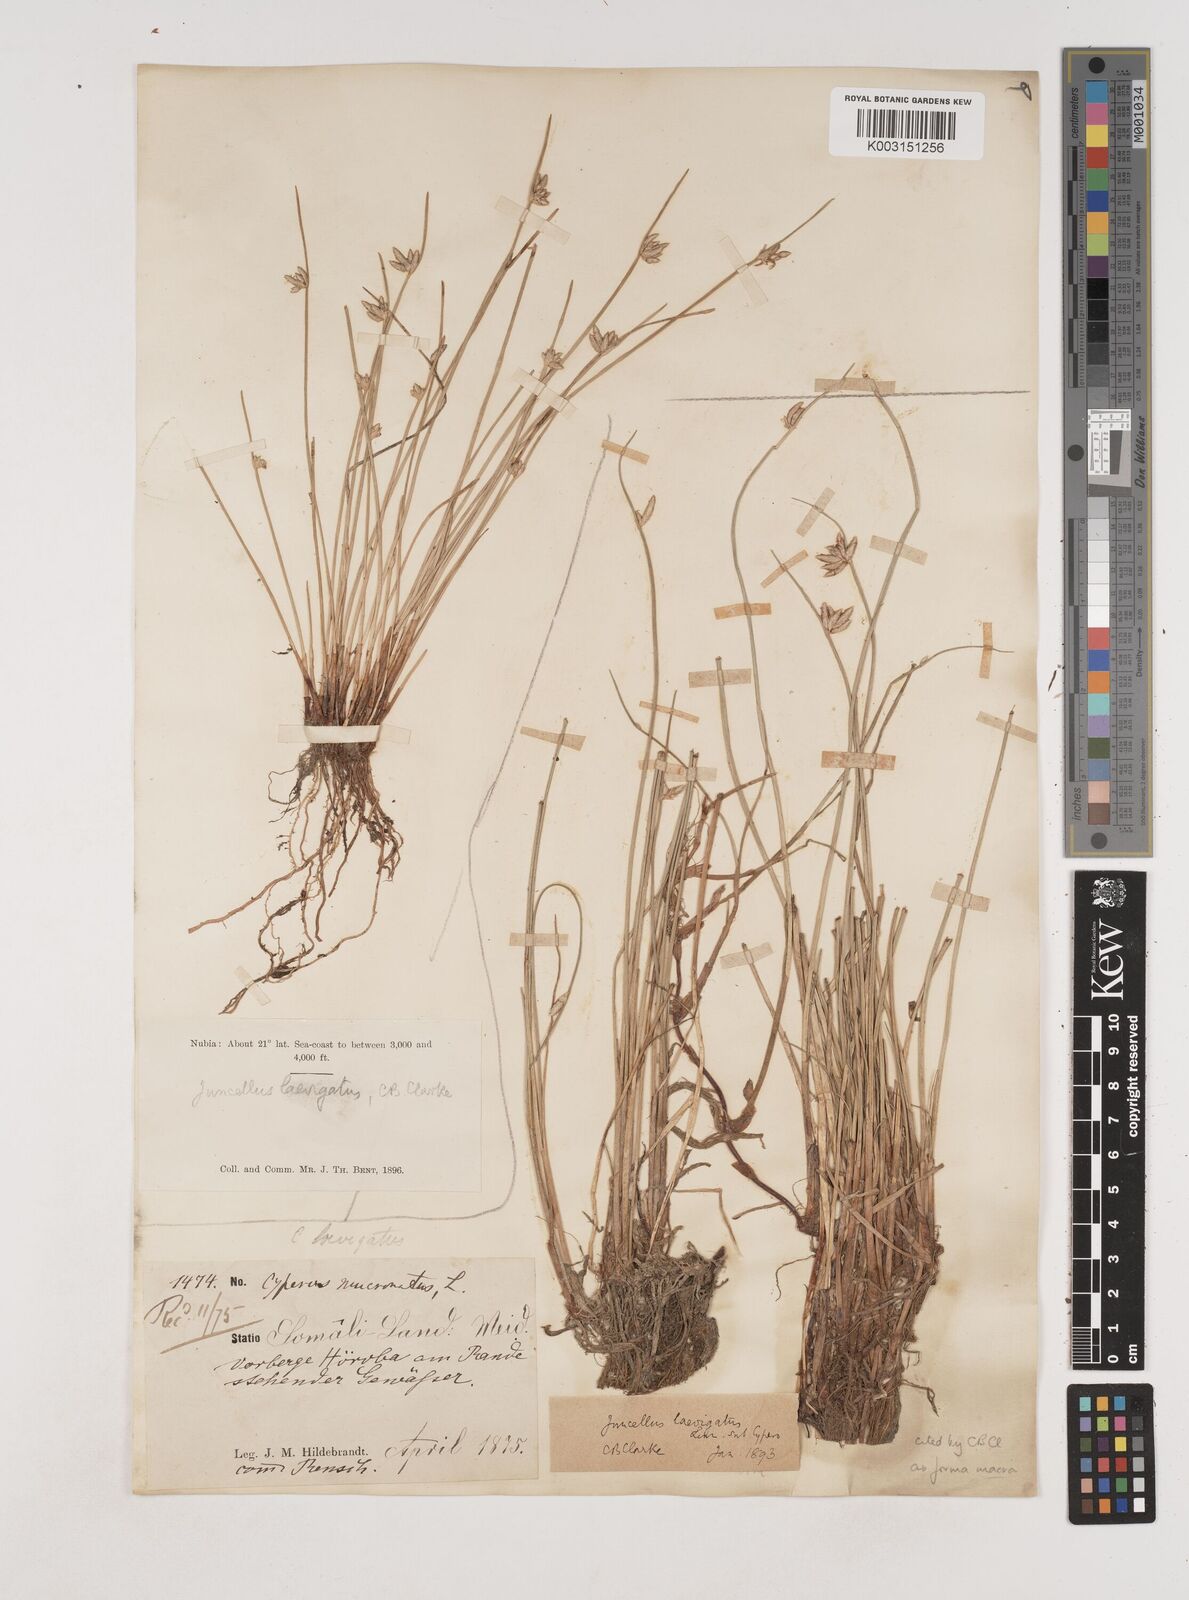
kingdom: Plantae
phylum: Tracheophyta
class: Liliopsida
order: Poales
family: Cyperaceae
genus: Cyperus
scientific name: Cyperus
